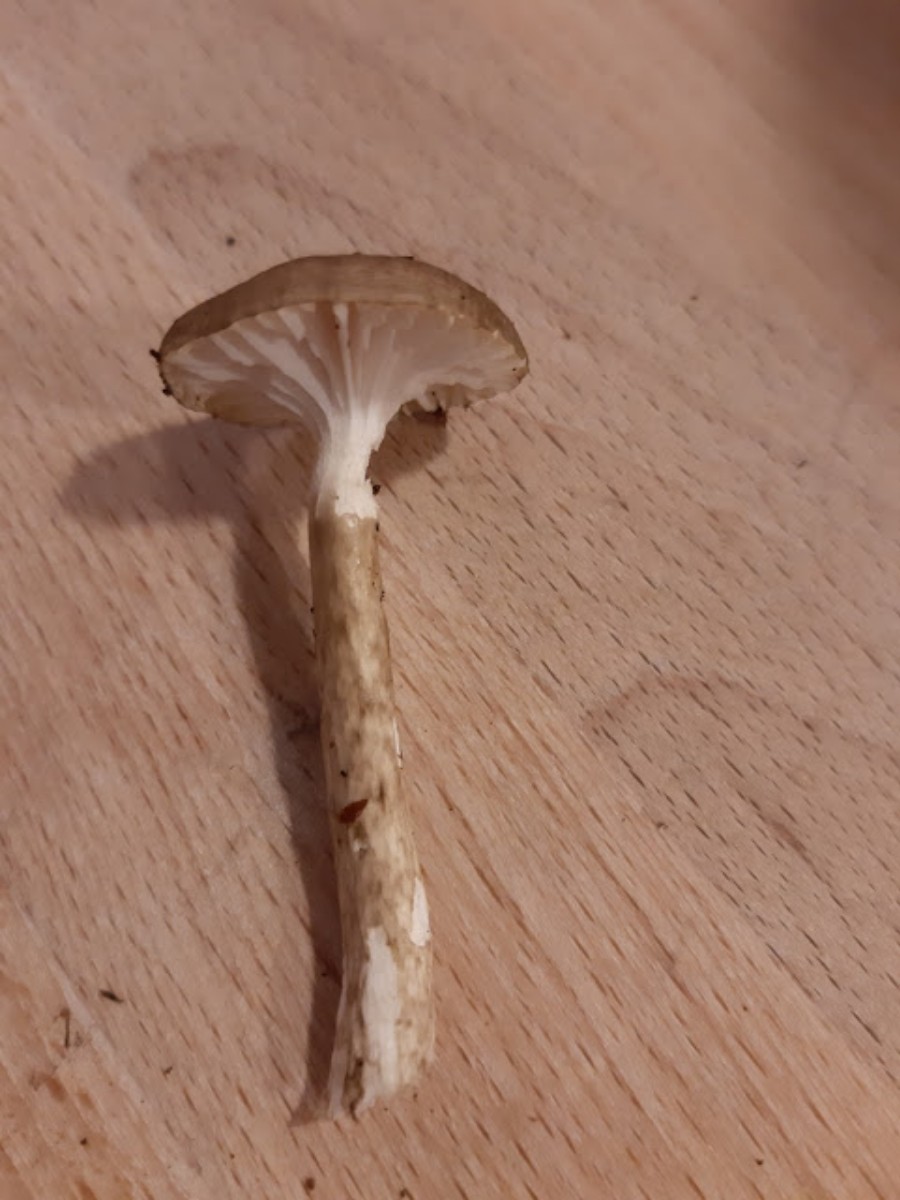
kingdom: Fungi
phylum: Basidiomycota
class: Agaricomycetes
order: Agaricales
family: Hygrophoraceae
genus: Hygrophorus
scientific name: Hygrophorus olivaceoalbus
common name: hvidbrun sneglehat
